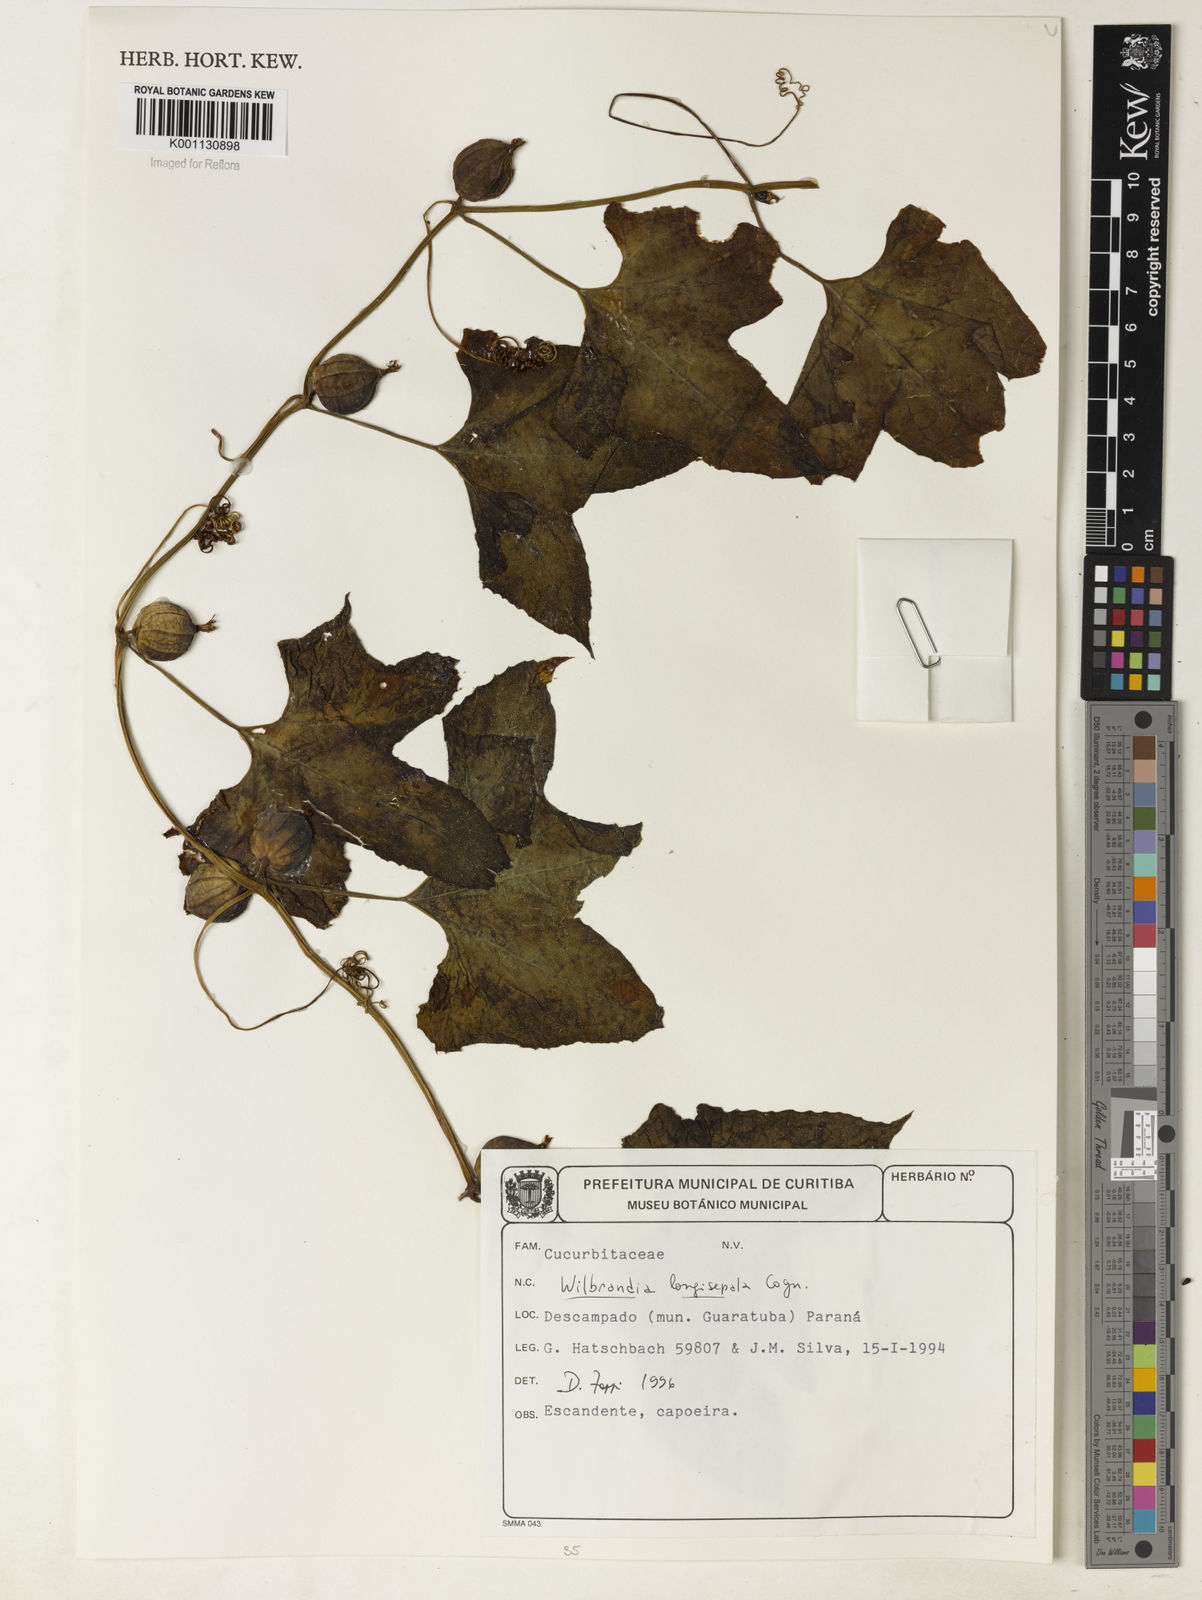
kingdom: Plantae
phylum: Tracheophyta
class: Magnoliopsida
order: Cucurbitales
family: Cucurbitaceae
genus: Wilbrandia
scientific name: Wilbrandia longisepala
